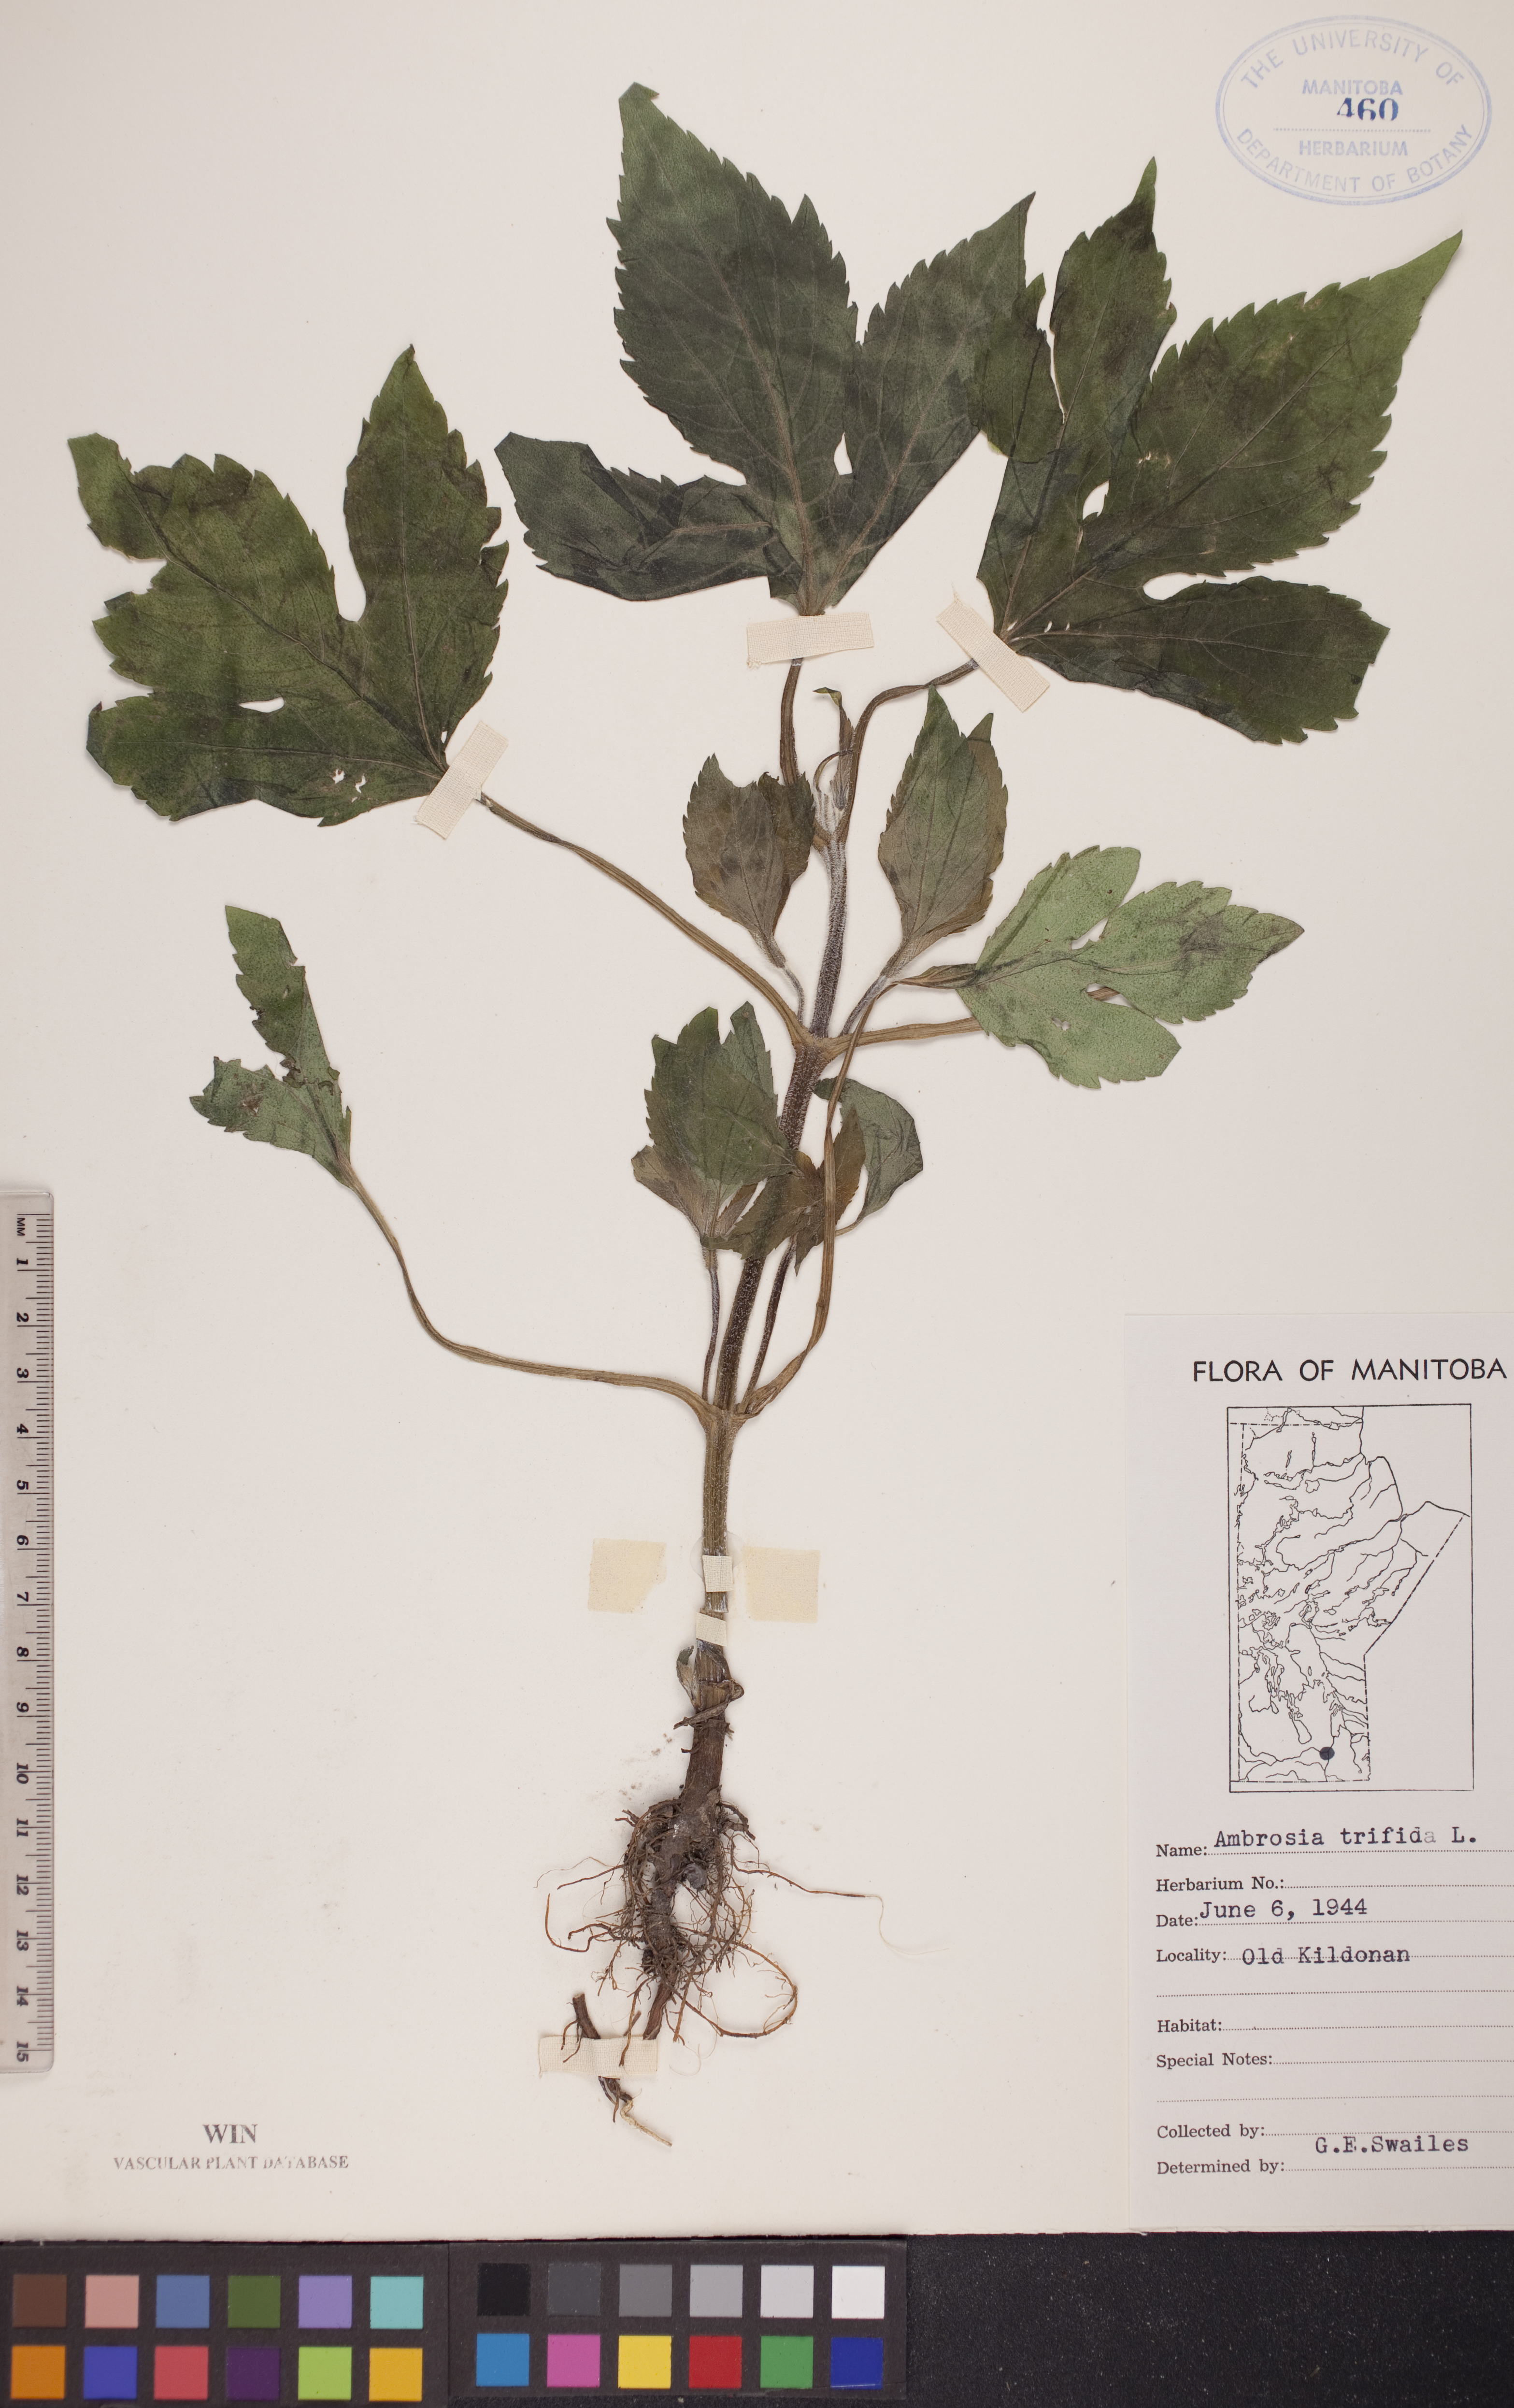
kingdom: Plantae
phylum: Tracheophyta
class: Magnoliopsida
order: Asterales
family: Asteraceae
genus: Ambrosia
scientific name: Ambrosia trifida
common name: Giant ragweed
